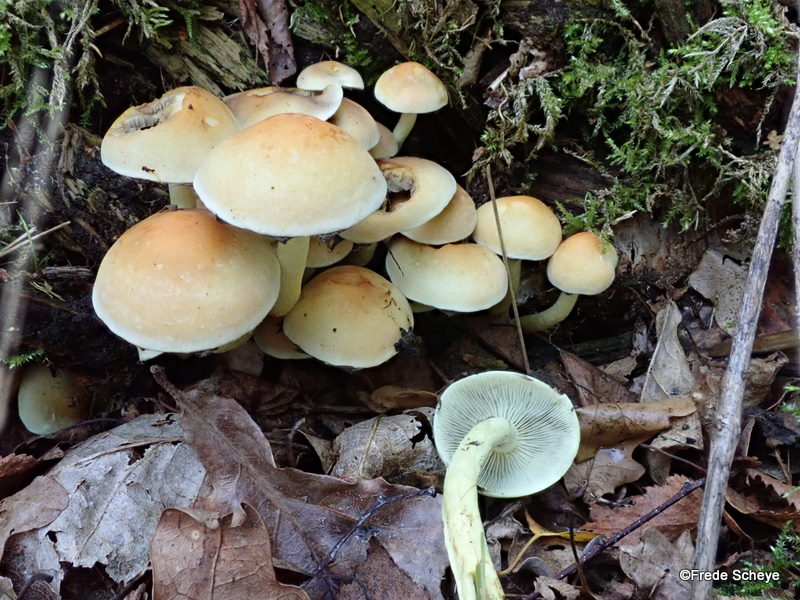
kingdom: Fungi
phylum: Basidiomycota
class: Agaricomycetes
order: Agaricales
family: Strophariaceae
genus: Hypholoma
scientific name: Hypholoma fasciculare
